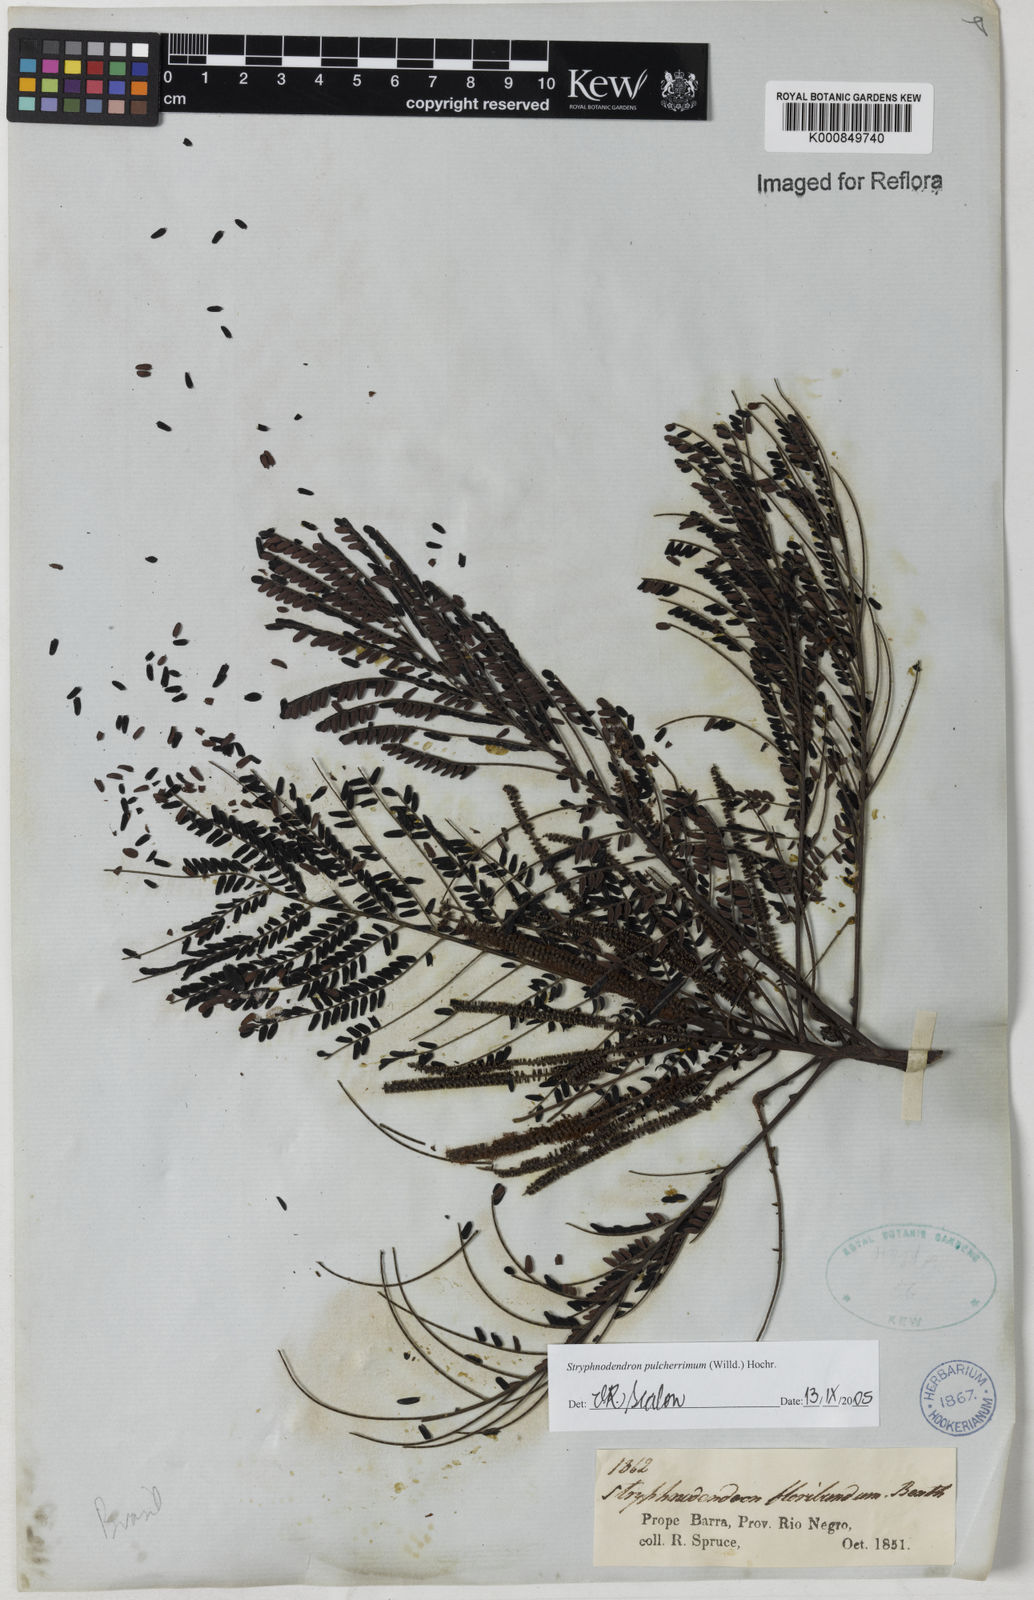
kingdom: Plantae
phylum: Tracheophyta
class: Magnoliopsida
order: Fabales
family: Fabaceae
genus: Stryphnodendron
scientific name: Stryphnodendron pulcherrimum
